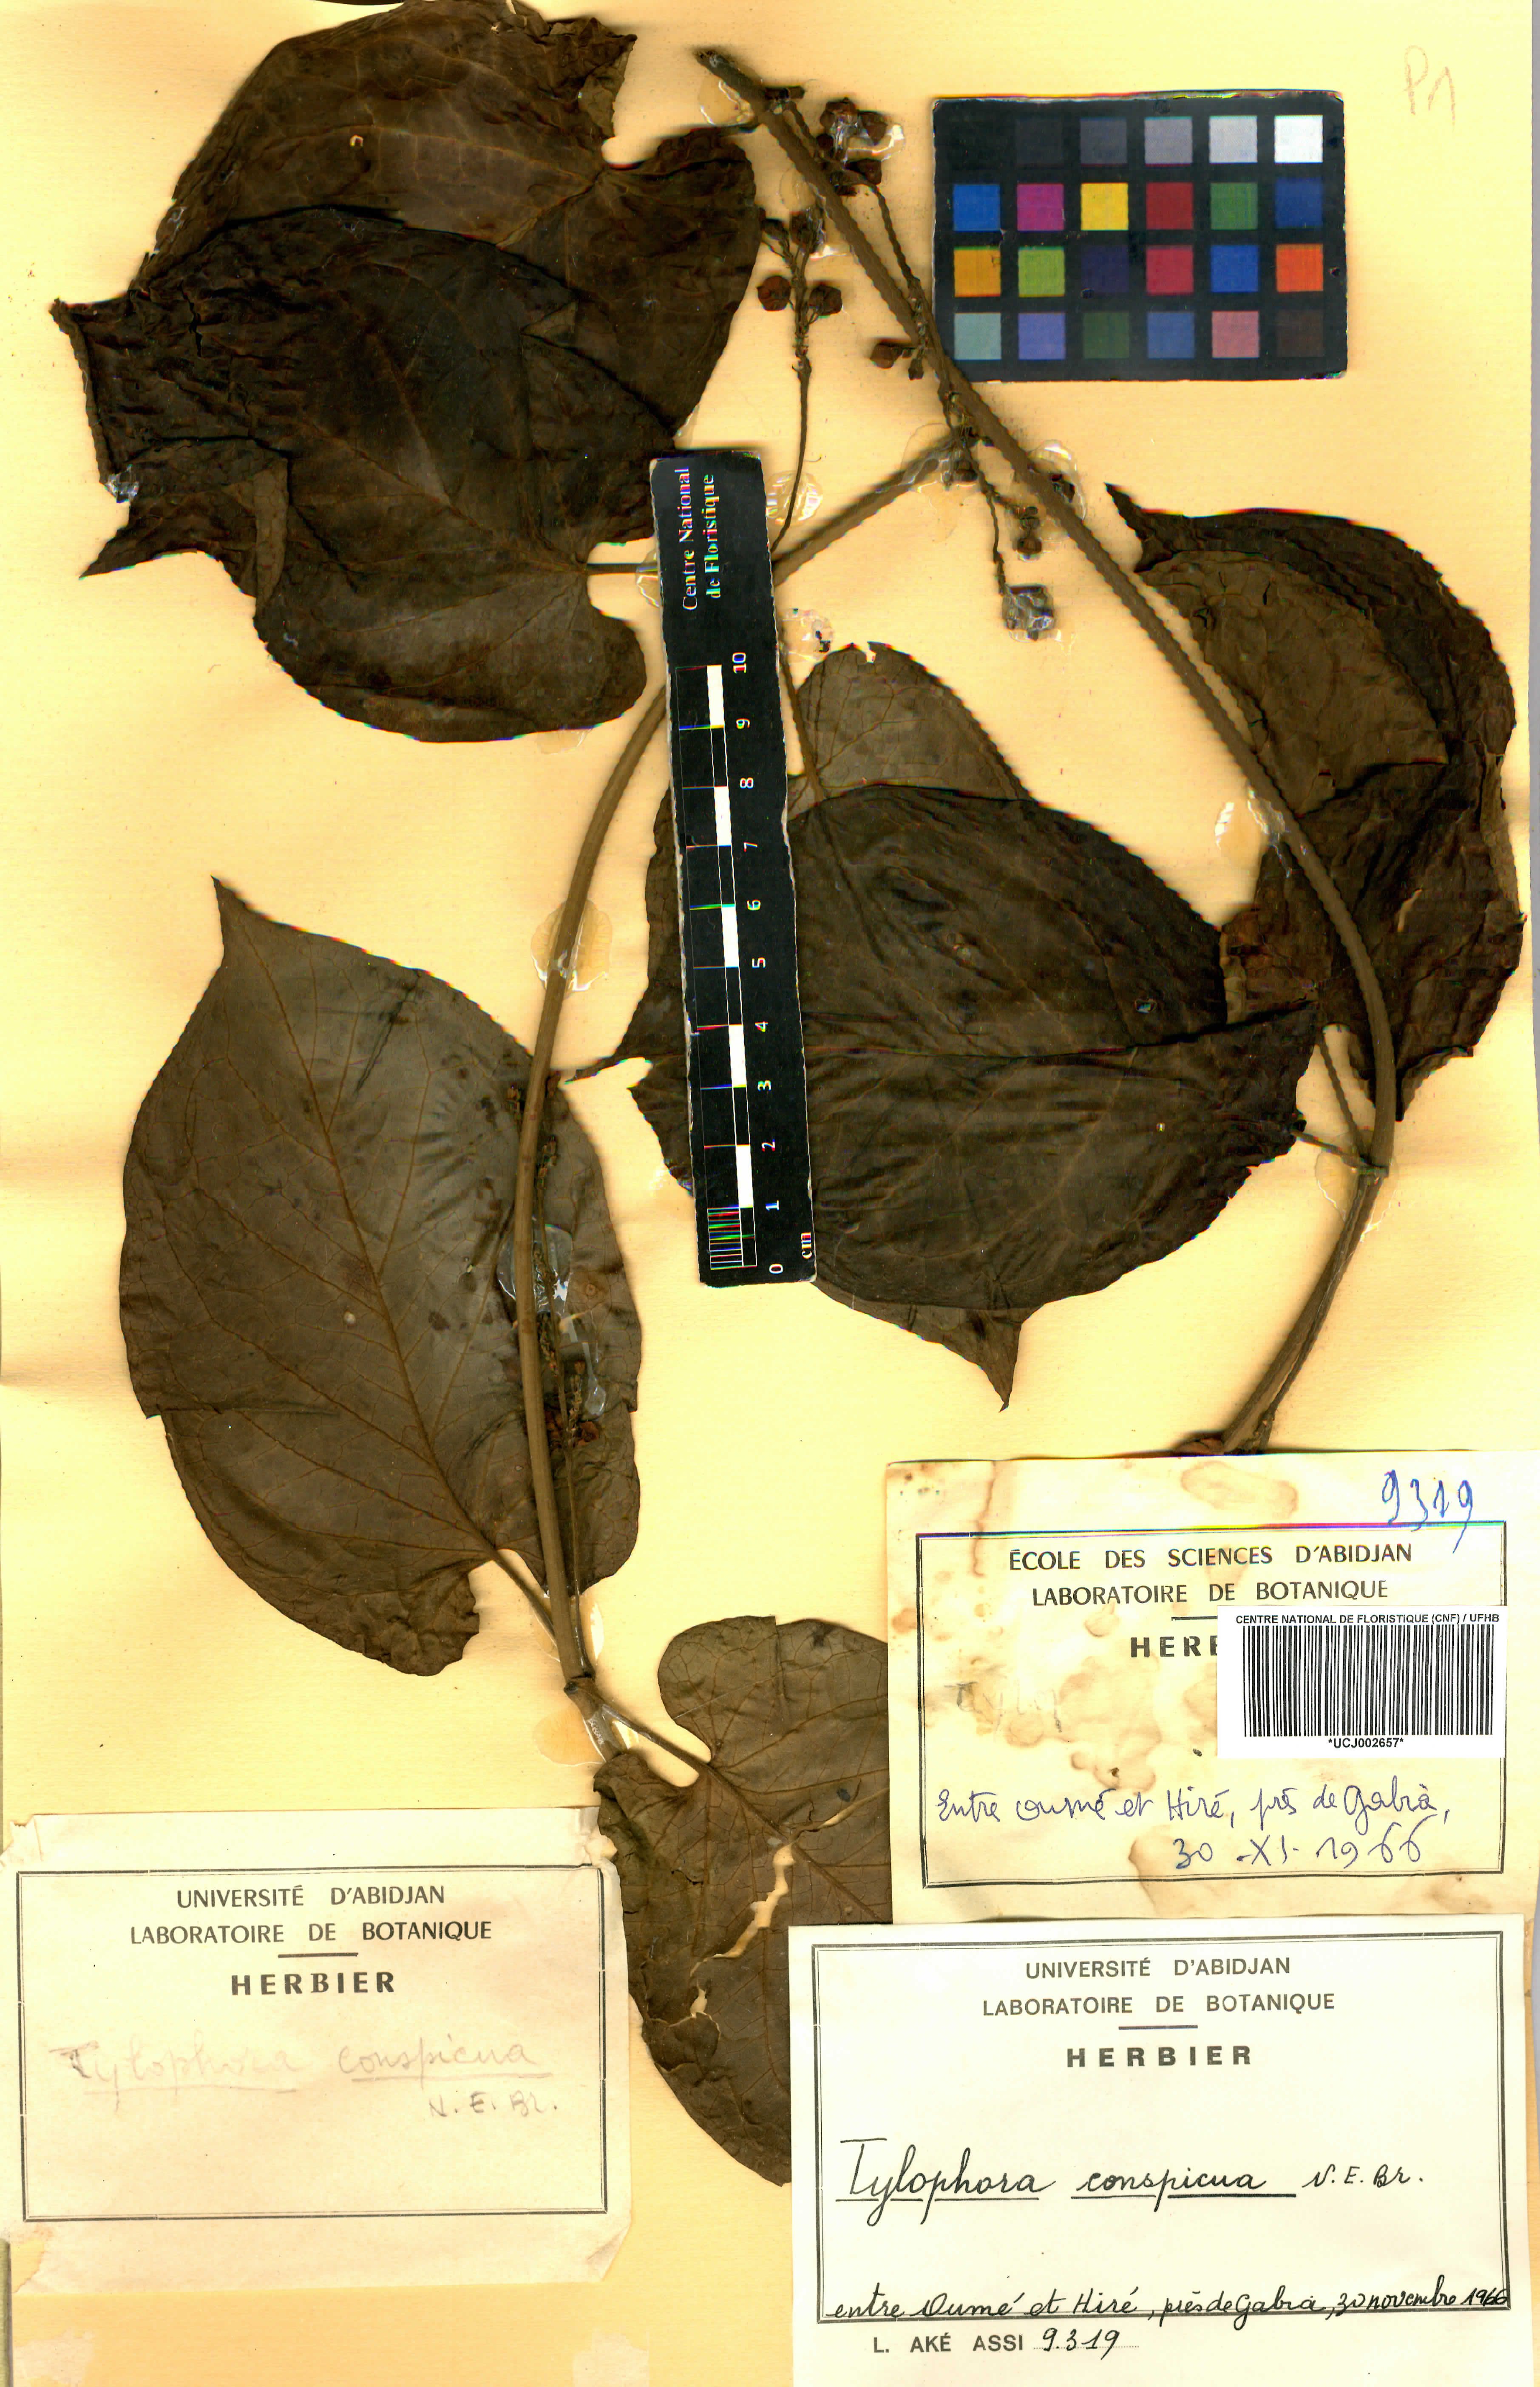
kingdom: Plantae
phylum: Tracheophyta
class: Magnoliopsida
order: Gentianales
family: Apocynaceae
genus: Vincetoxicum
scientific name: Vincetoxicum conspicuum
